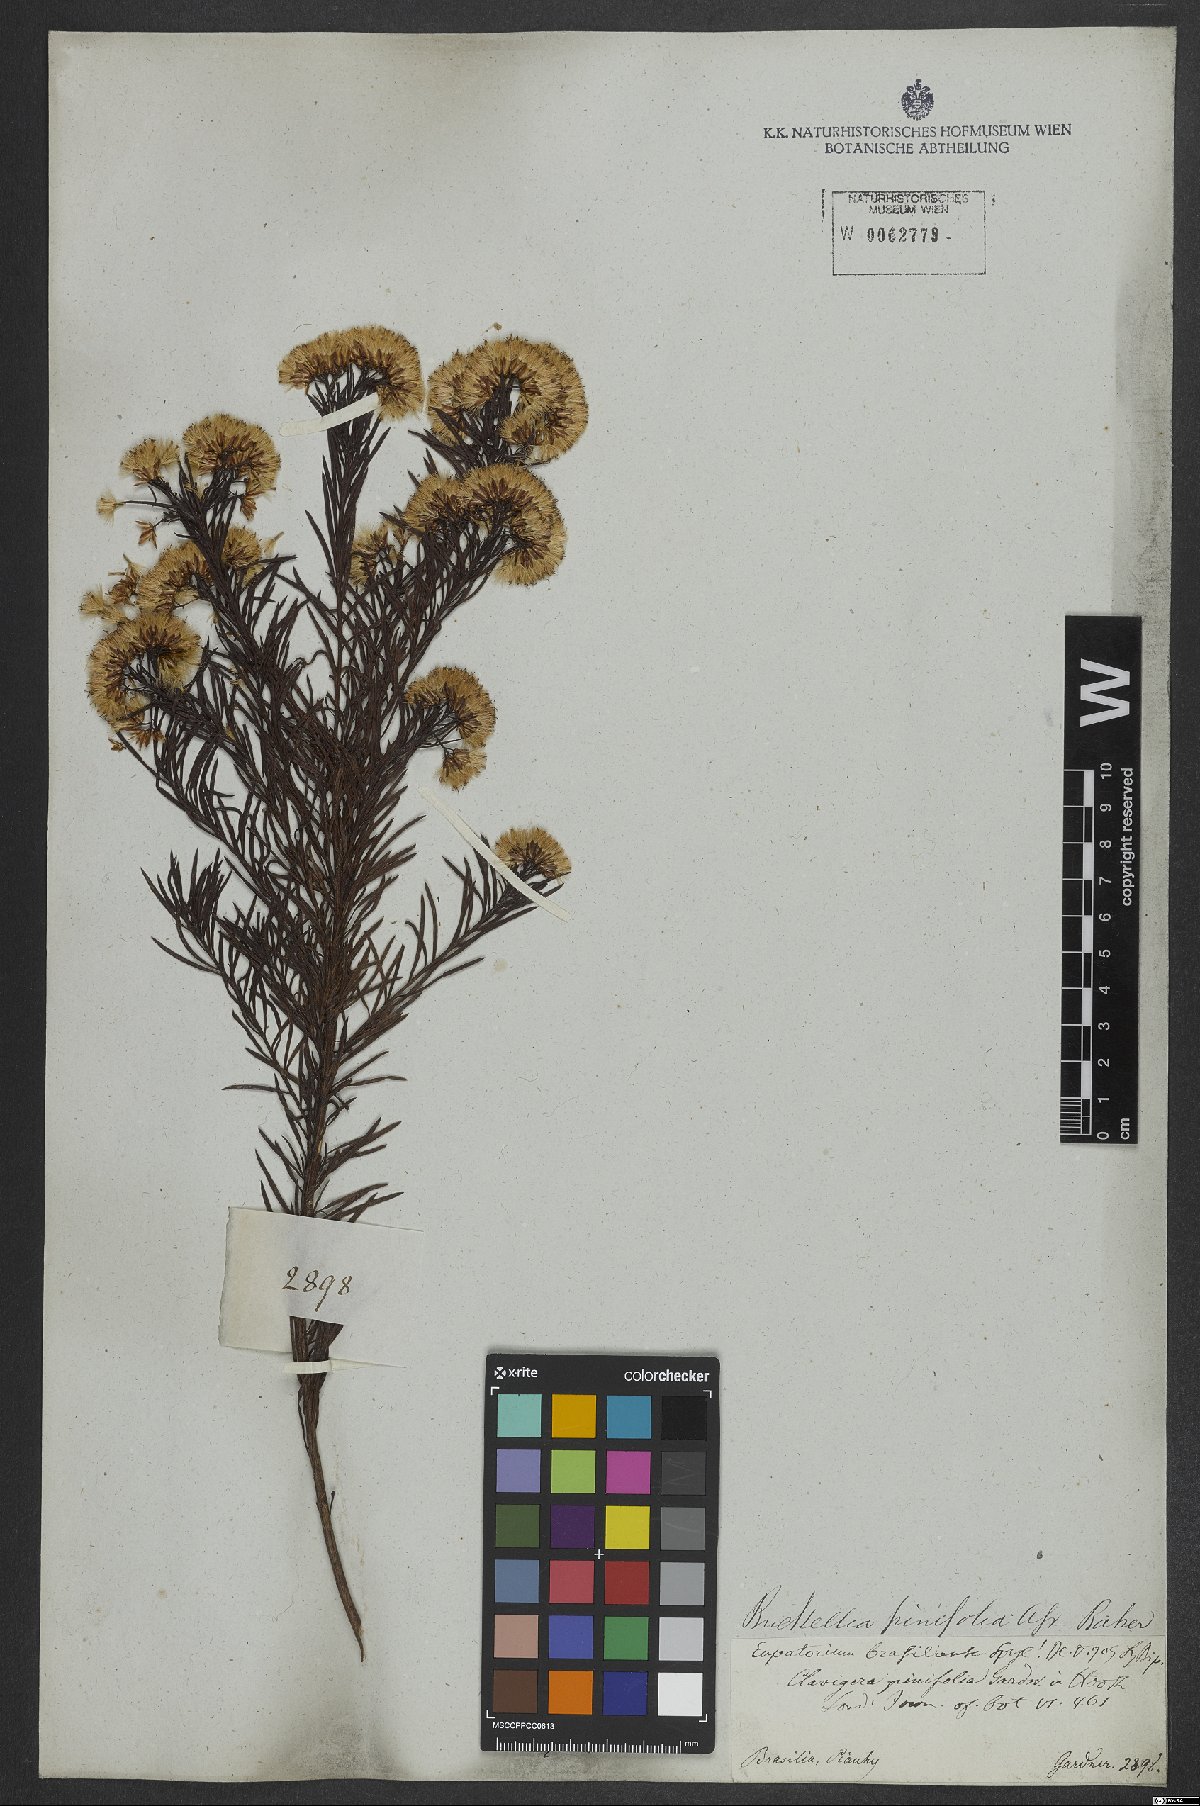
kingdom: Plantae
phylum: Tracheophyta
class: Magnoliopsida
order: Asterales
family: Asteraceae
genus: Pseudobrickellia
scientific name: Pseudobrickellia brasiliensis
